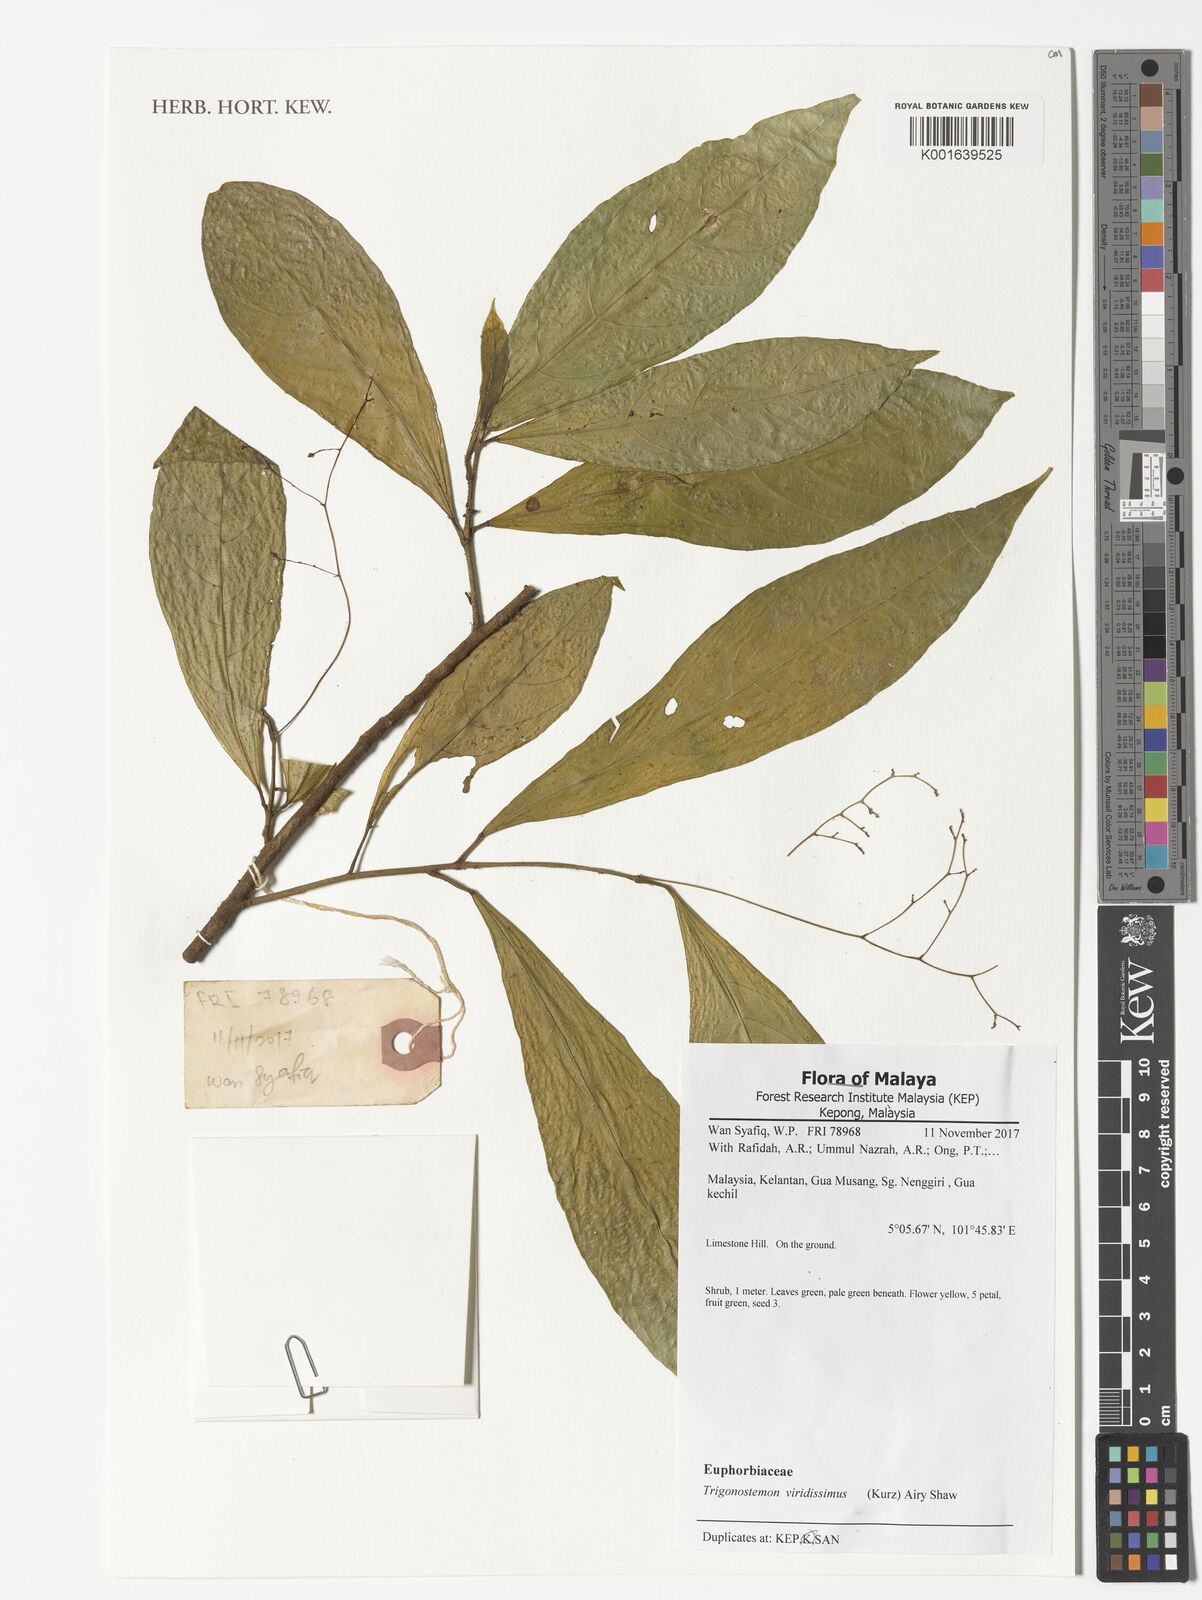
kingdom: Plantae
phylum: Tracheophyta
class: Magnoliopsida
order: Malpighiales
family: Euphorbiaceae
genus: Trigonostemon
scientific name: Trigonostemon viridissimus
